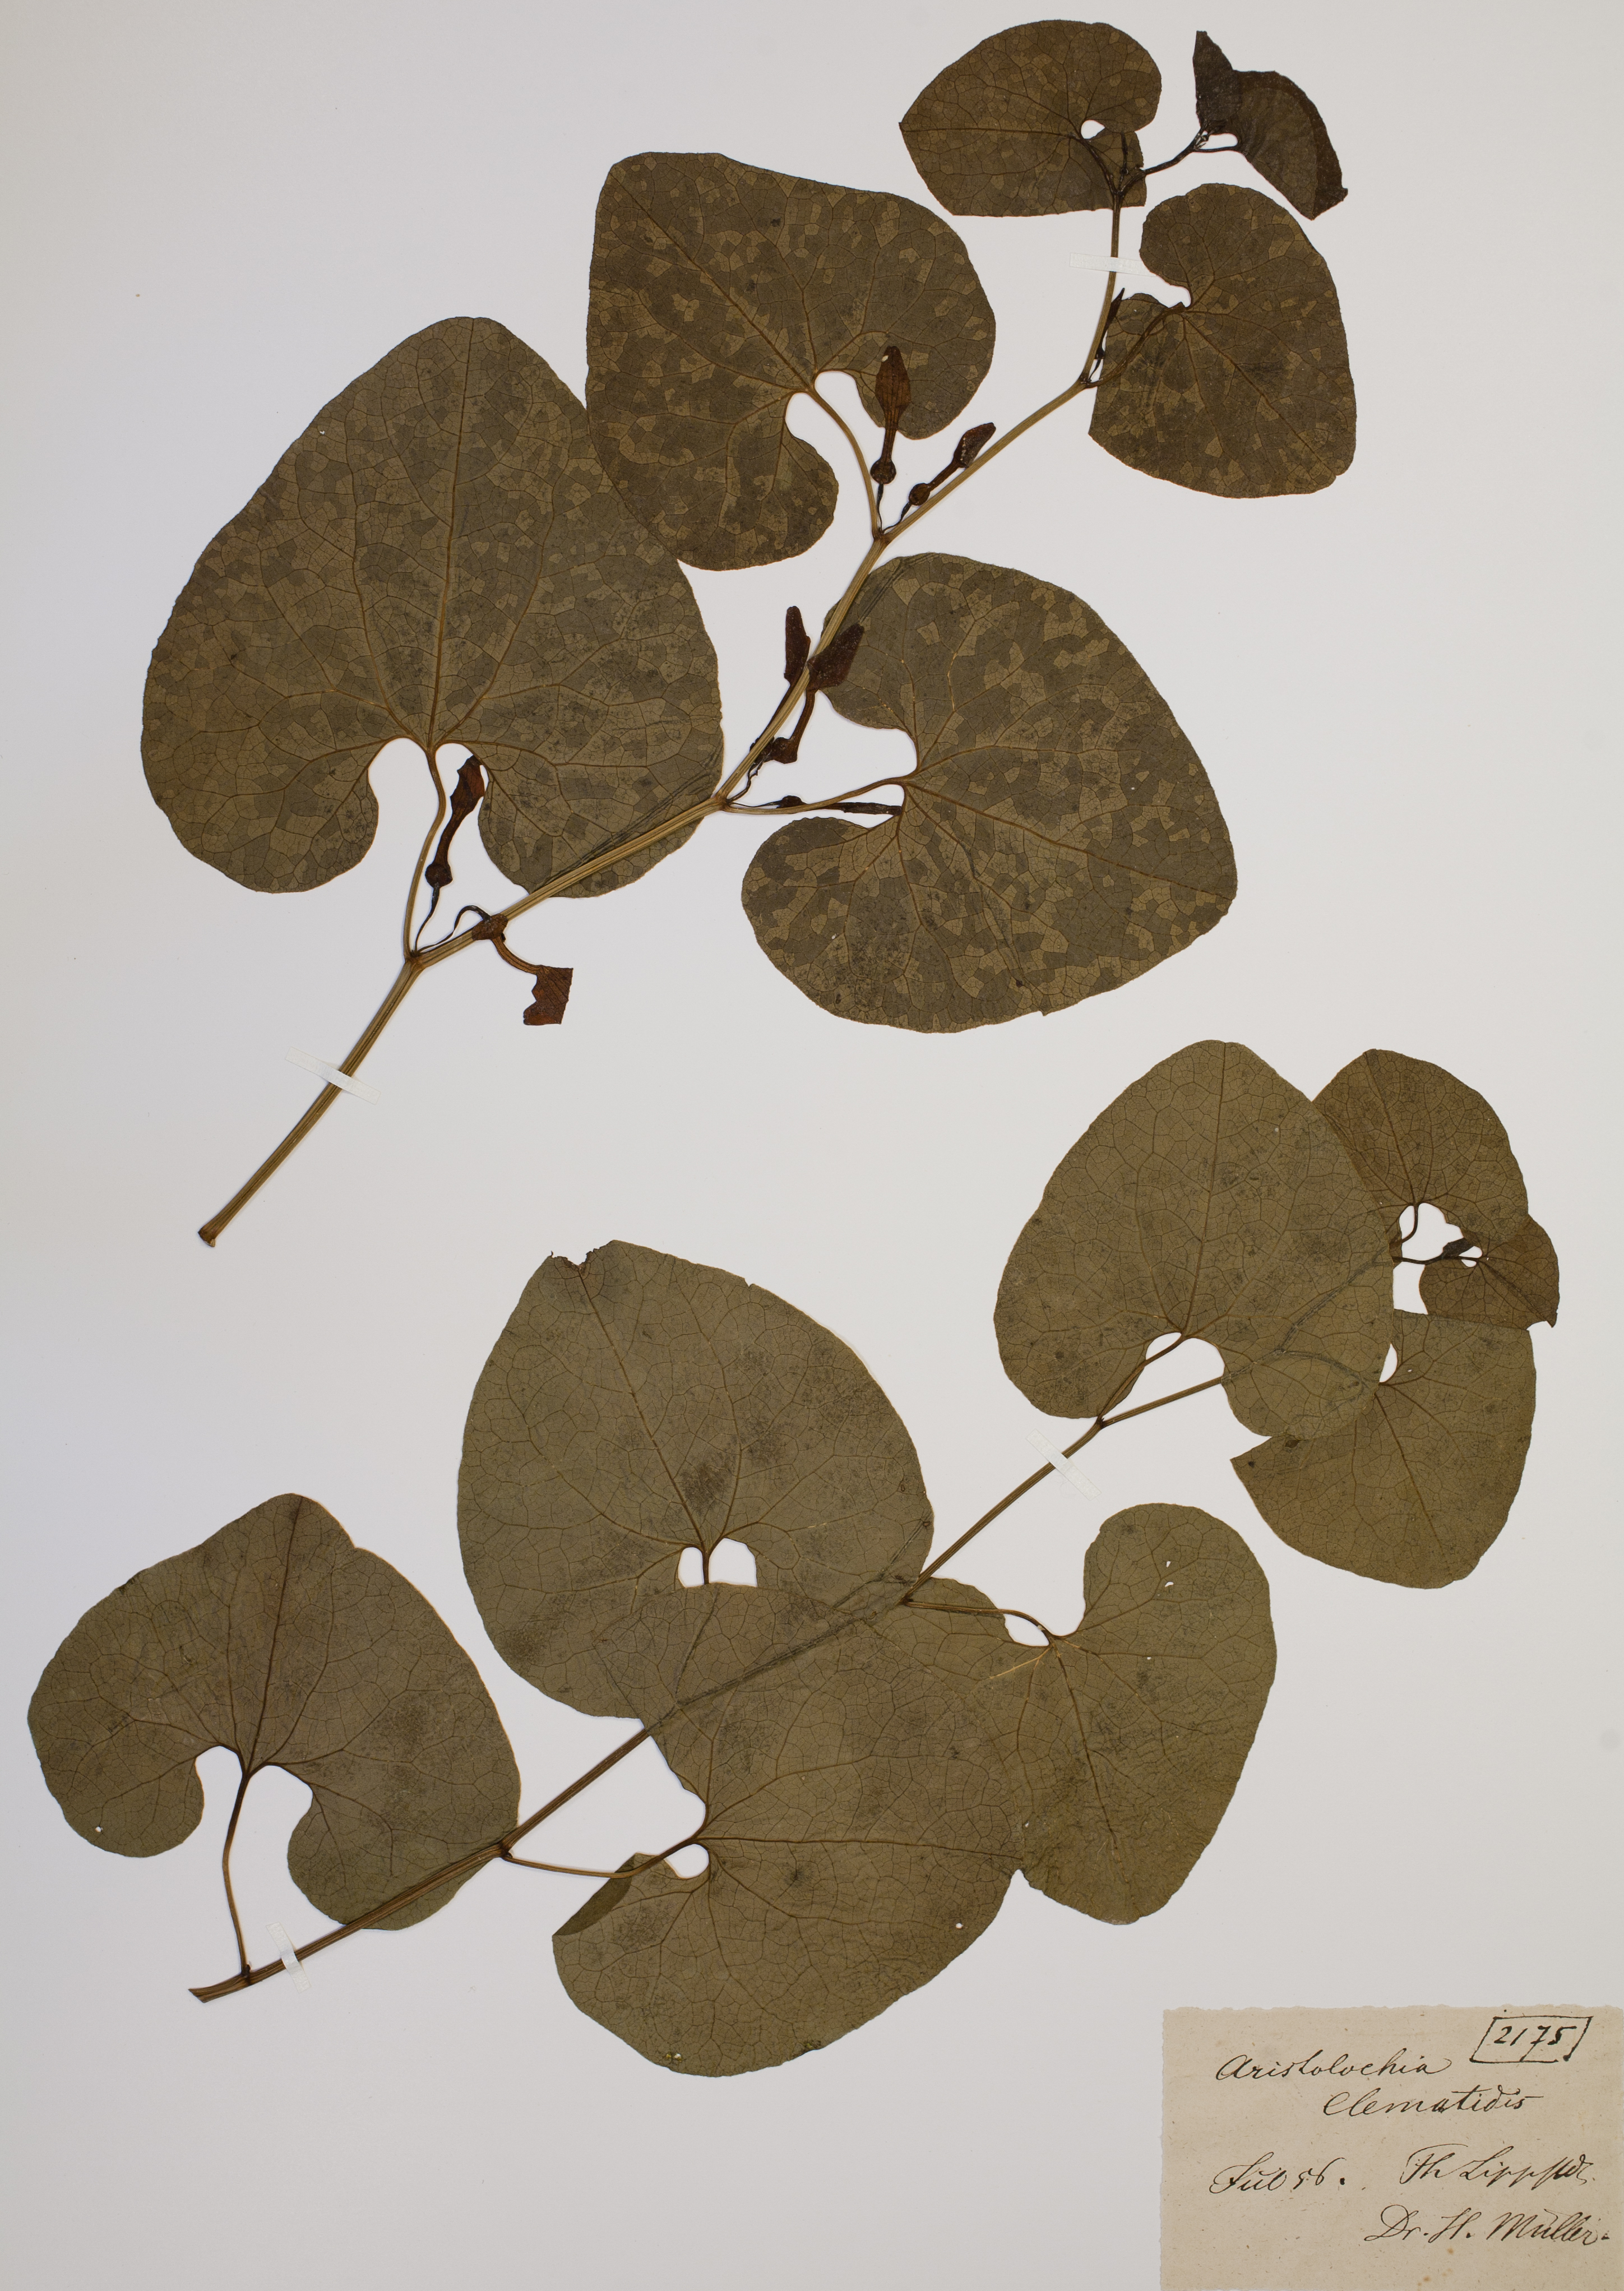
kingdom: Plantae
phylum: Tracheophyta
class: Magnoliopsida
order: Piperales
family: Aristolochiaceae
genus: Aristolochia
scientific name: Aristolochia clematitis
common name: Birthwort
